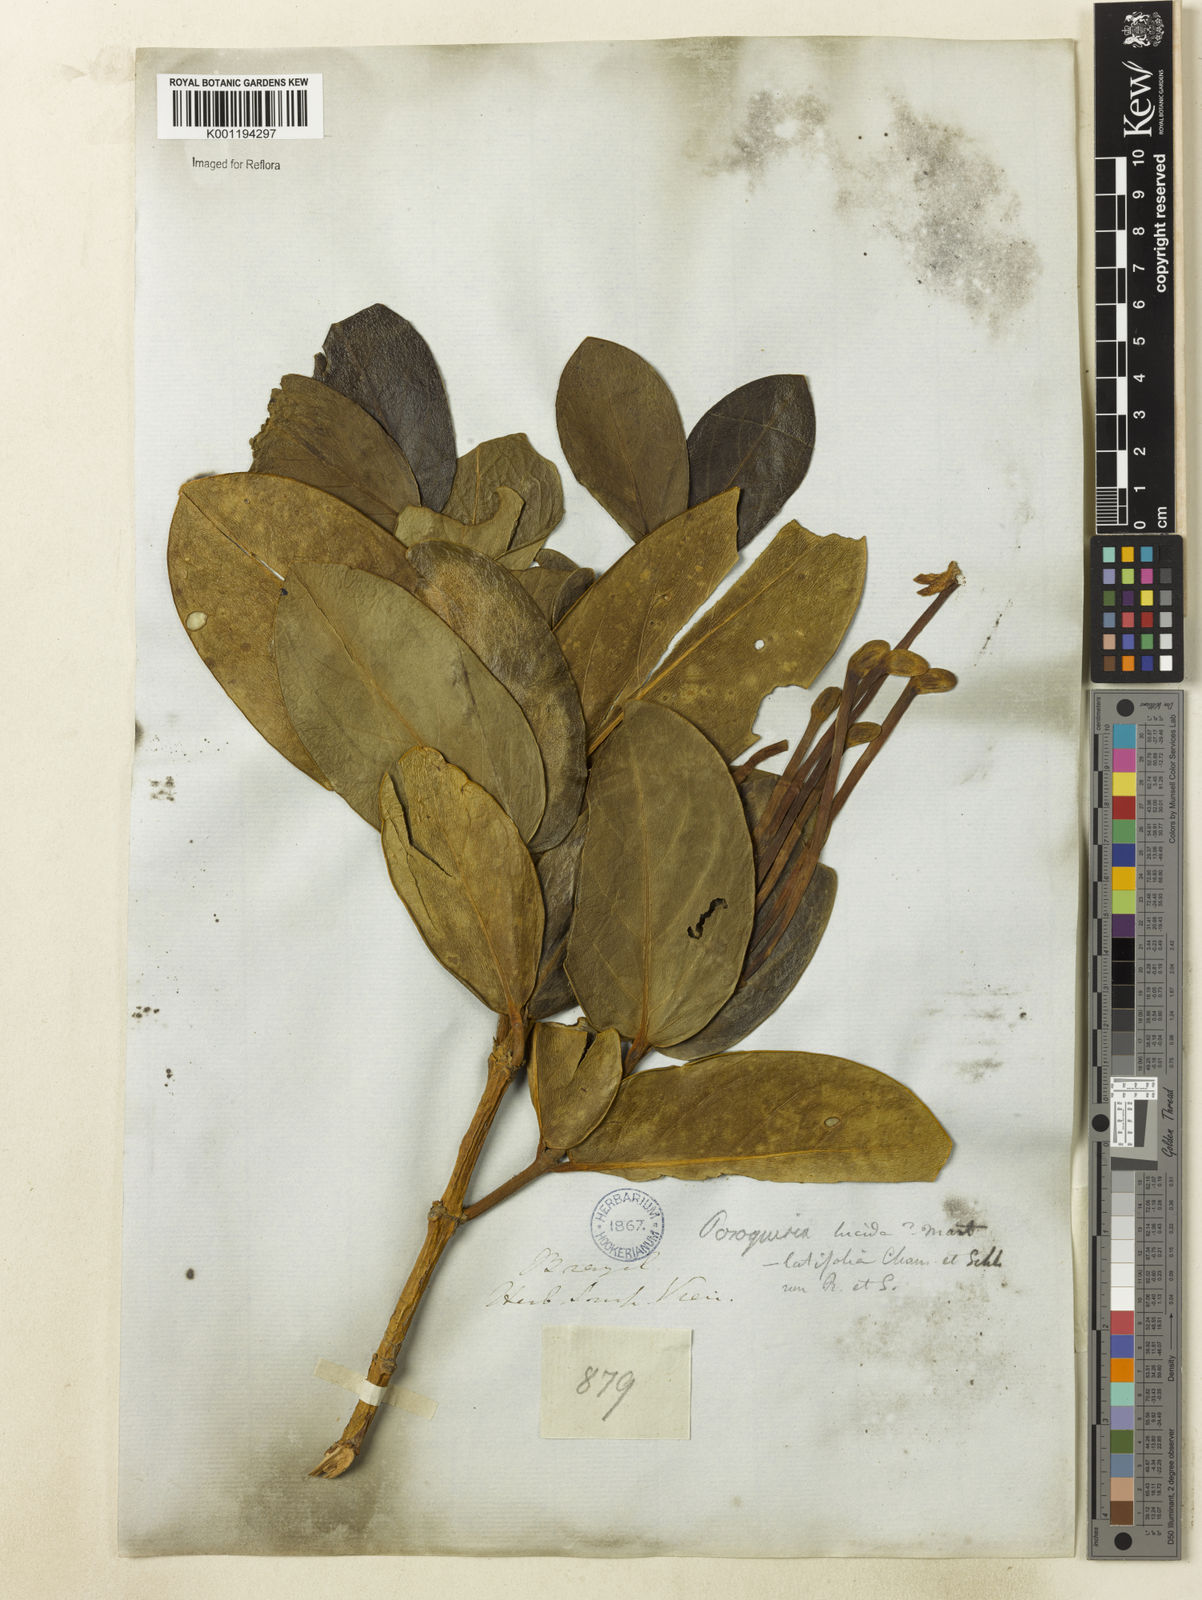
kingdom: Plantae
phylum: Tracheophyta
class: Magnoliopsida
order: Gentianales
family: Rubiaceae
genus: Posoqueria
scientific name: Posoqueria latifolia
